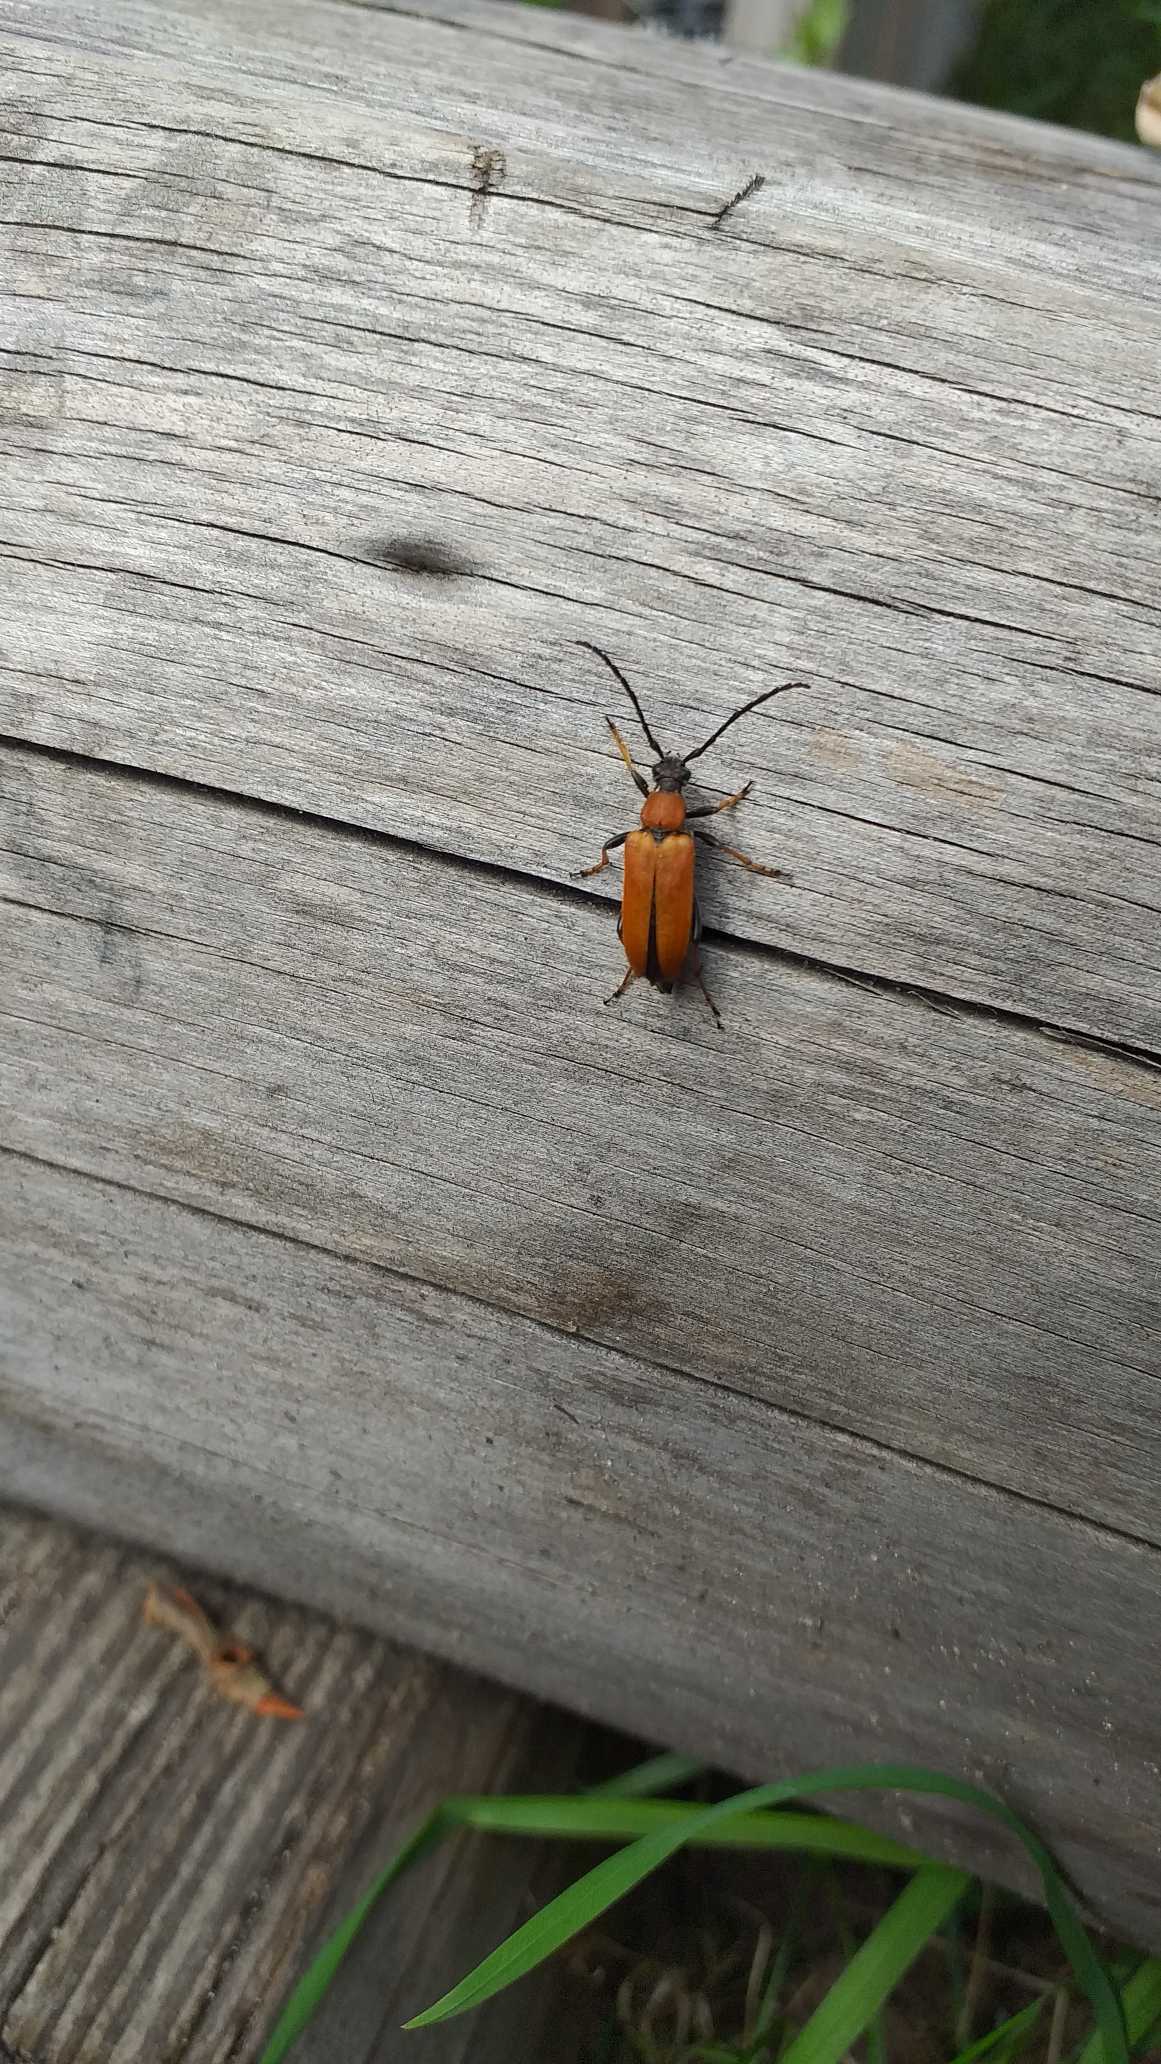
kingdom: Animalia
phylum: Arthropoda
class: Insecta
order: Coleoptera
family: Cerambycidae
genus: Stictoleptura
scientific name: Stictoleptura rubra
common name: Rød blomsterbuk
